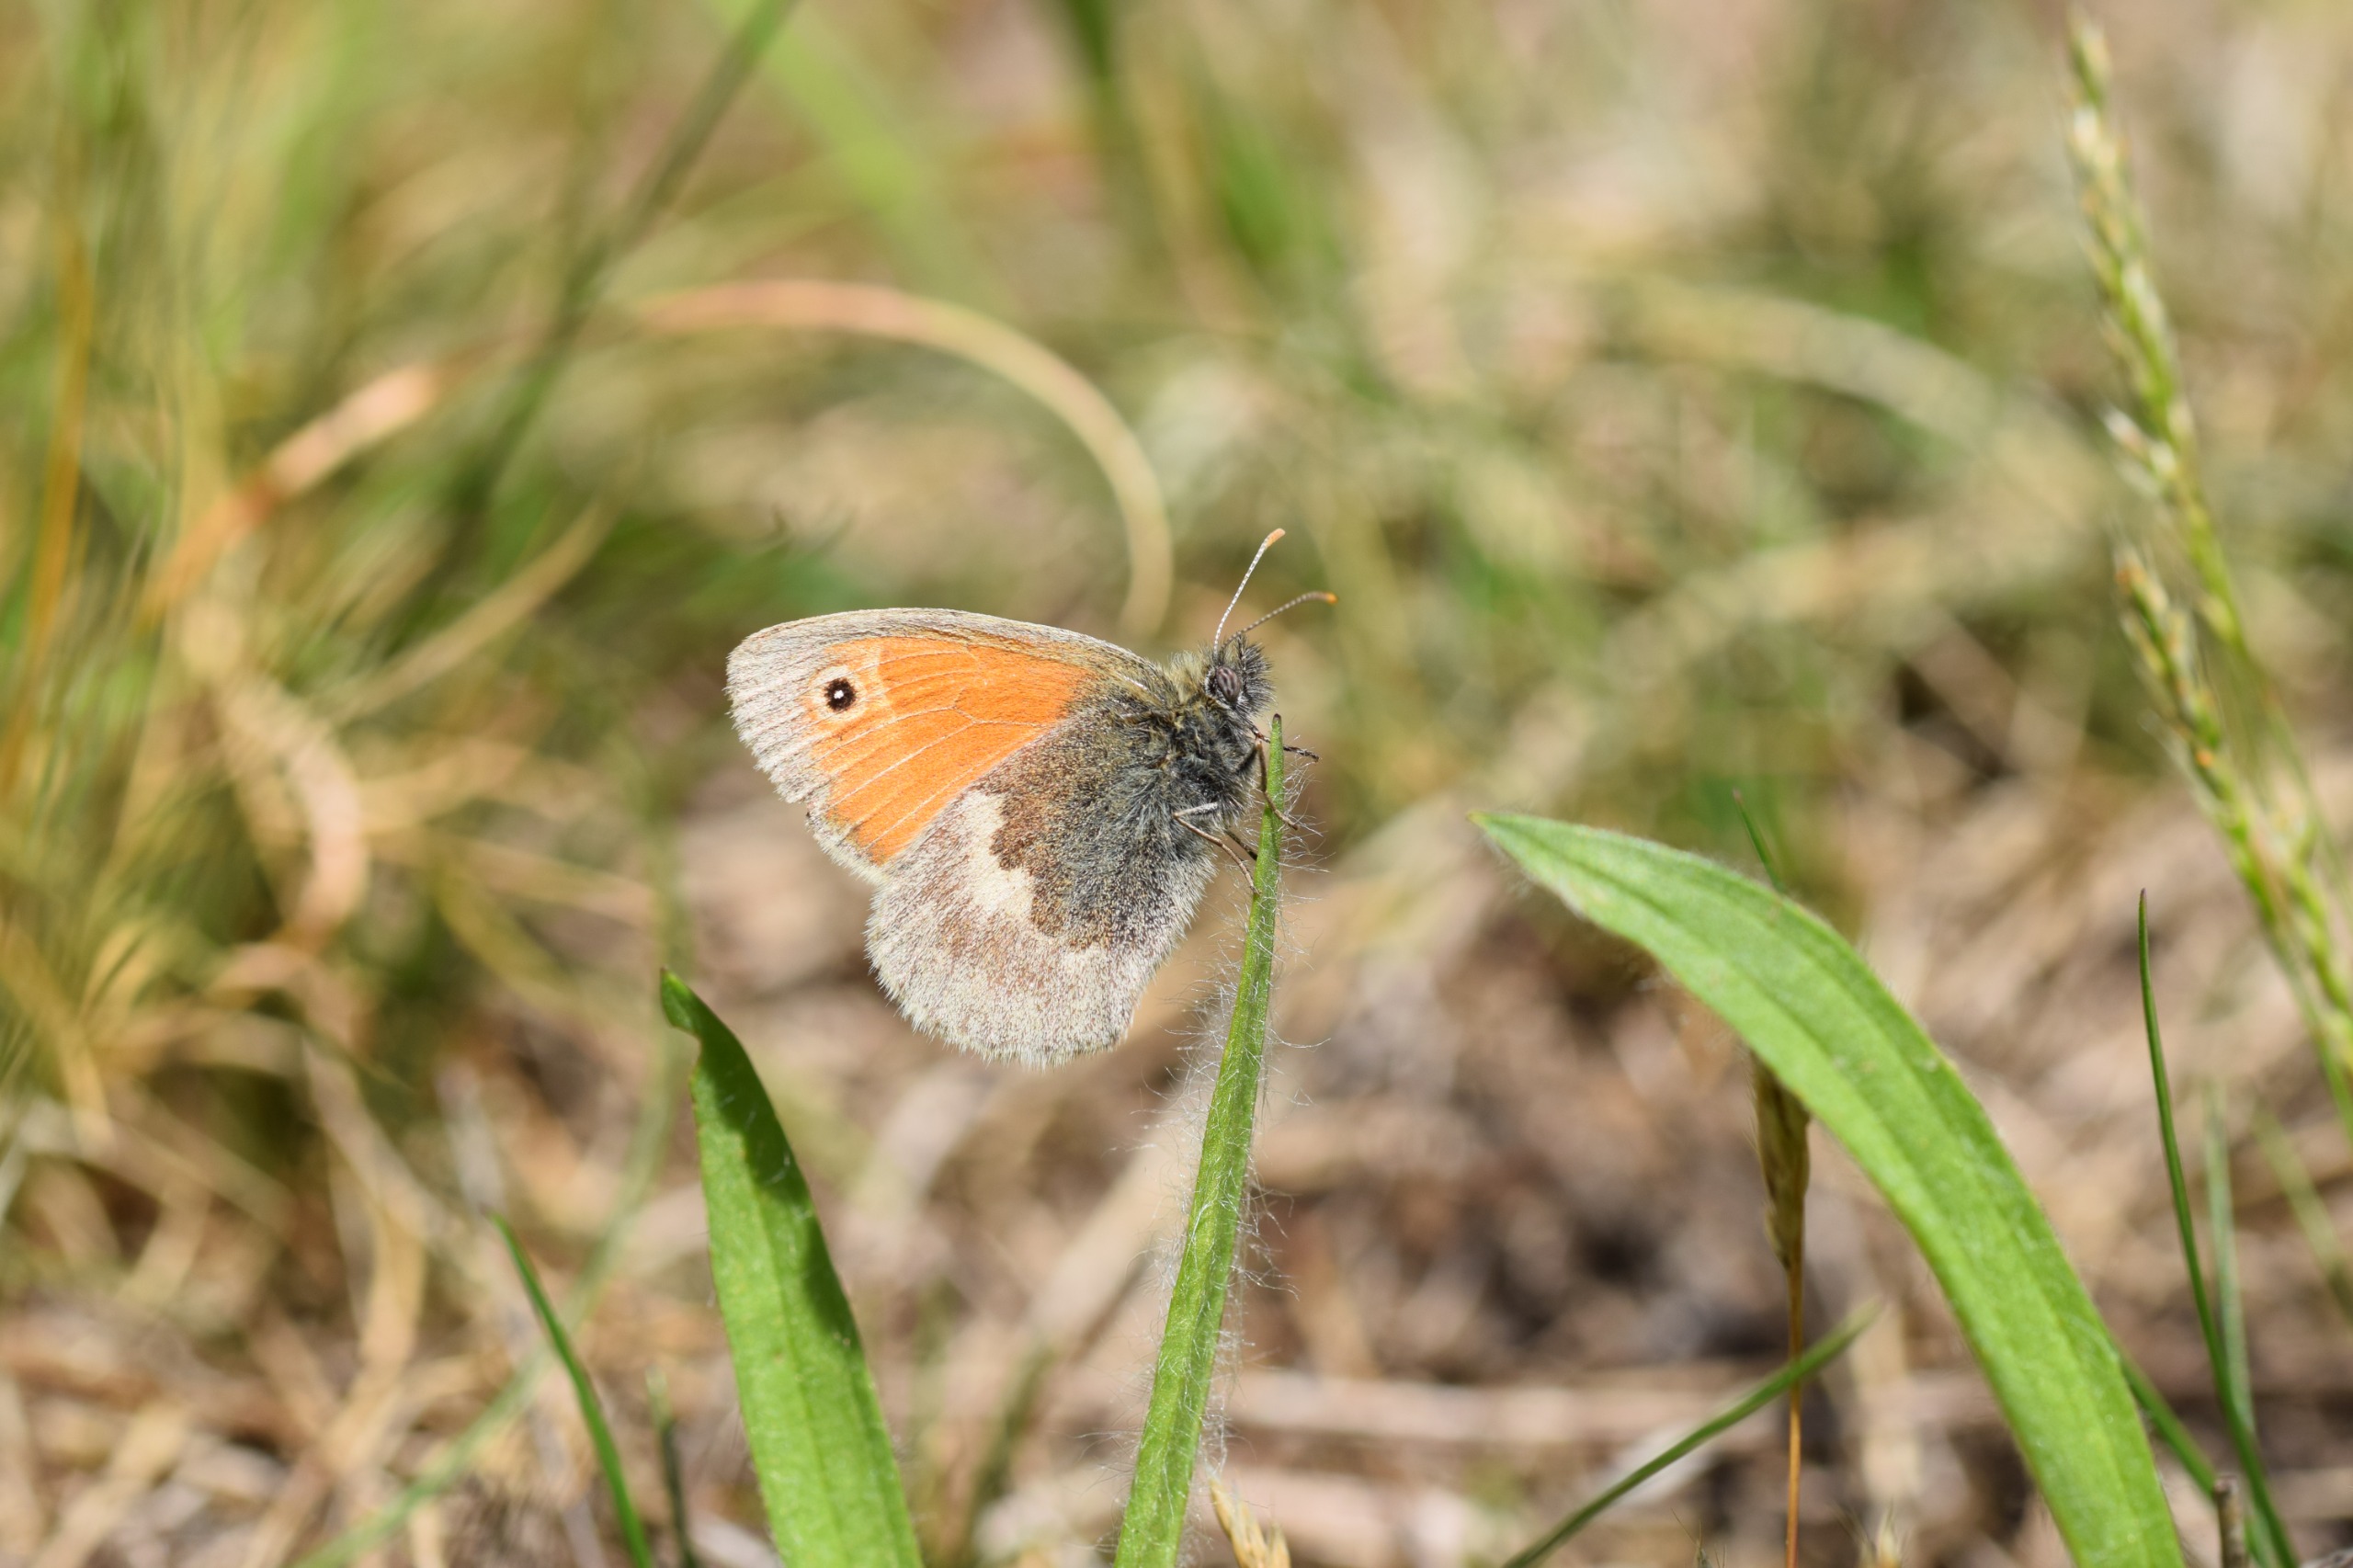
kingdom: Animalia
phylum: Arthropoda
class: Insecta
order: Lepidoptera
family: Nymphalidae
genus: Coenonympha
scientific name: Coenonympha pamphilus
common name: Okkergul randøje
